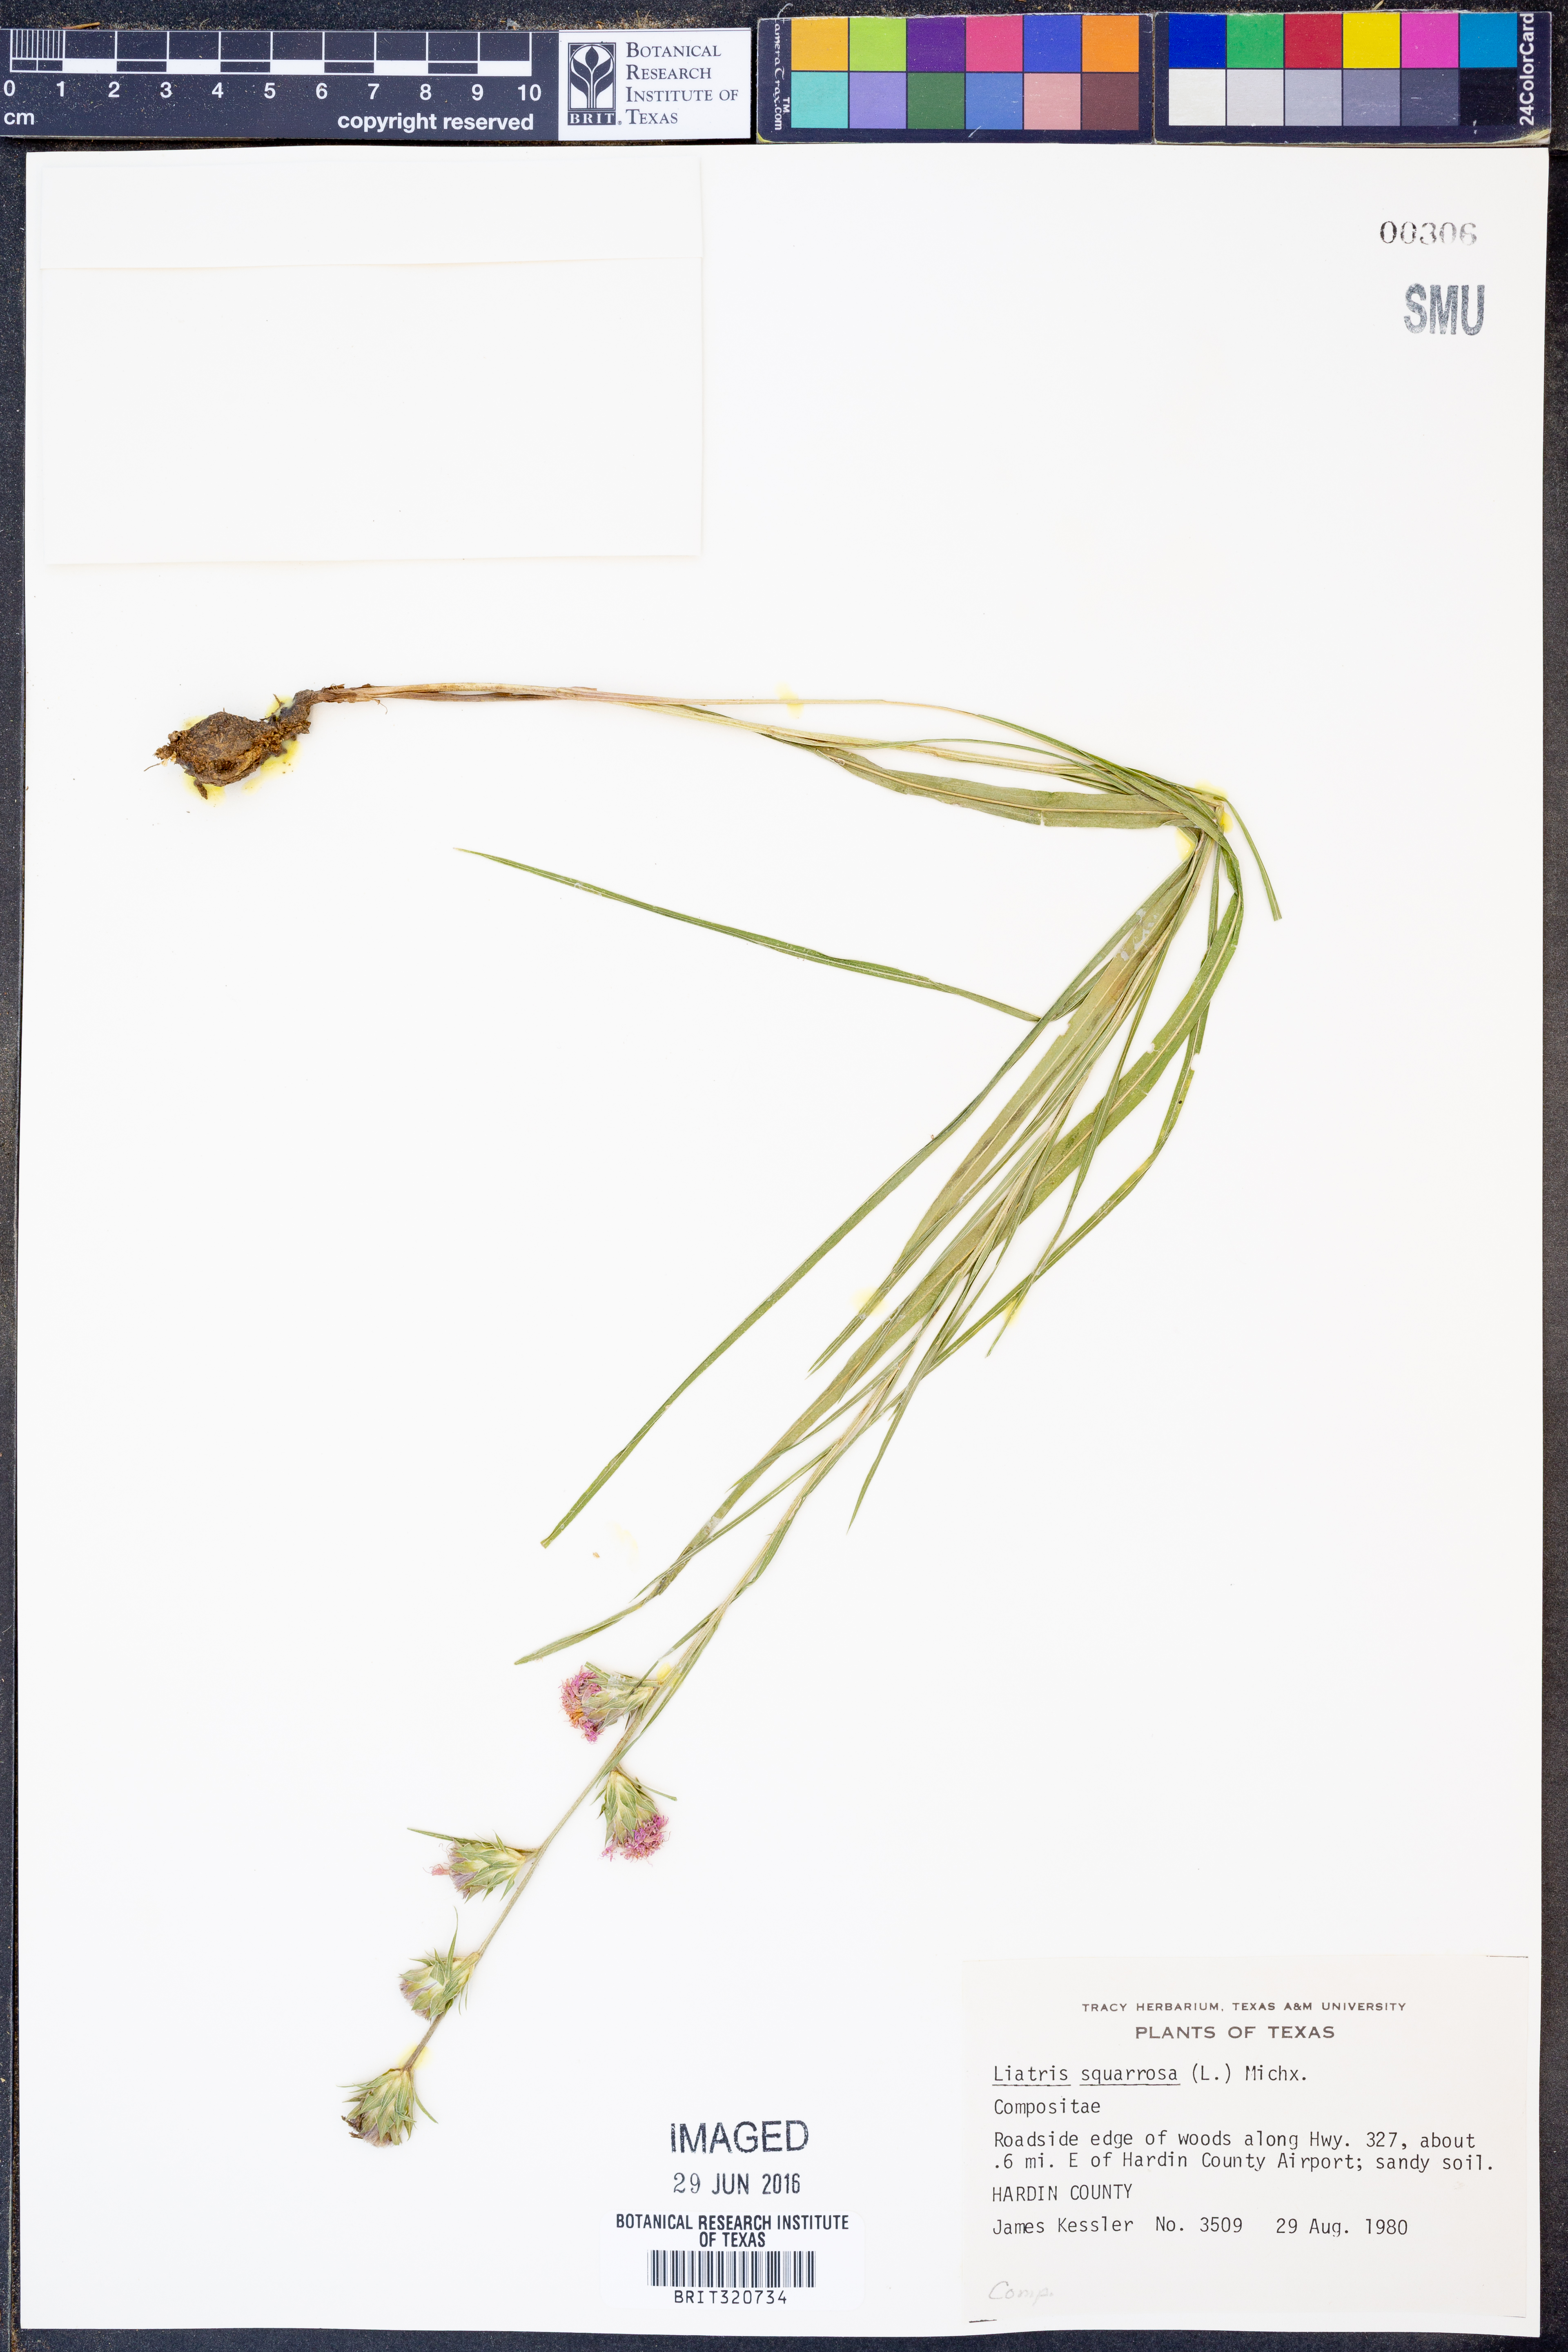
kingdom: Plantae
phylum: Tracheophyta
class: Magnoliopsida
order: Asterales
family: Asteraceae
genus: Liatris
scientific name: Liatris squarrosa
